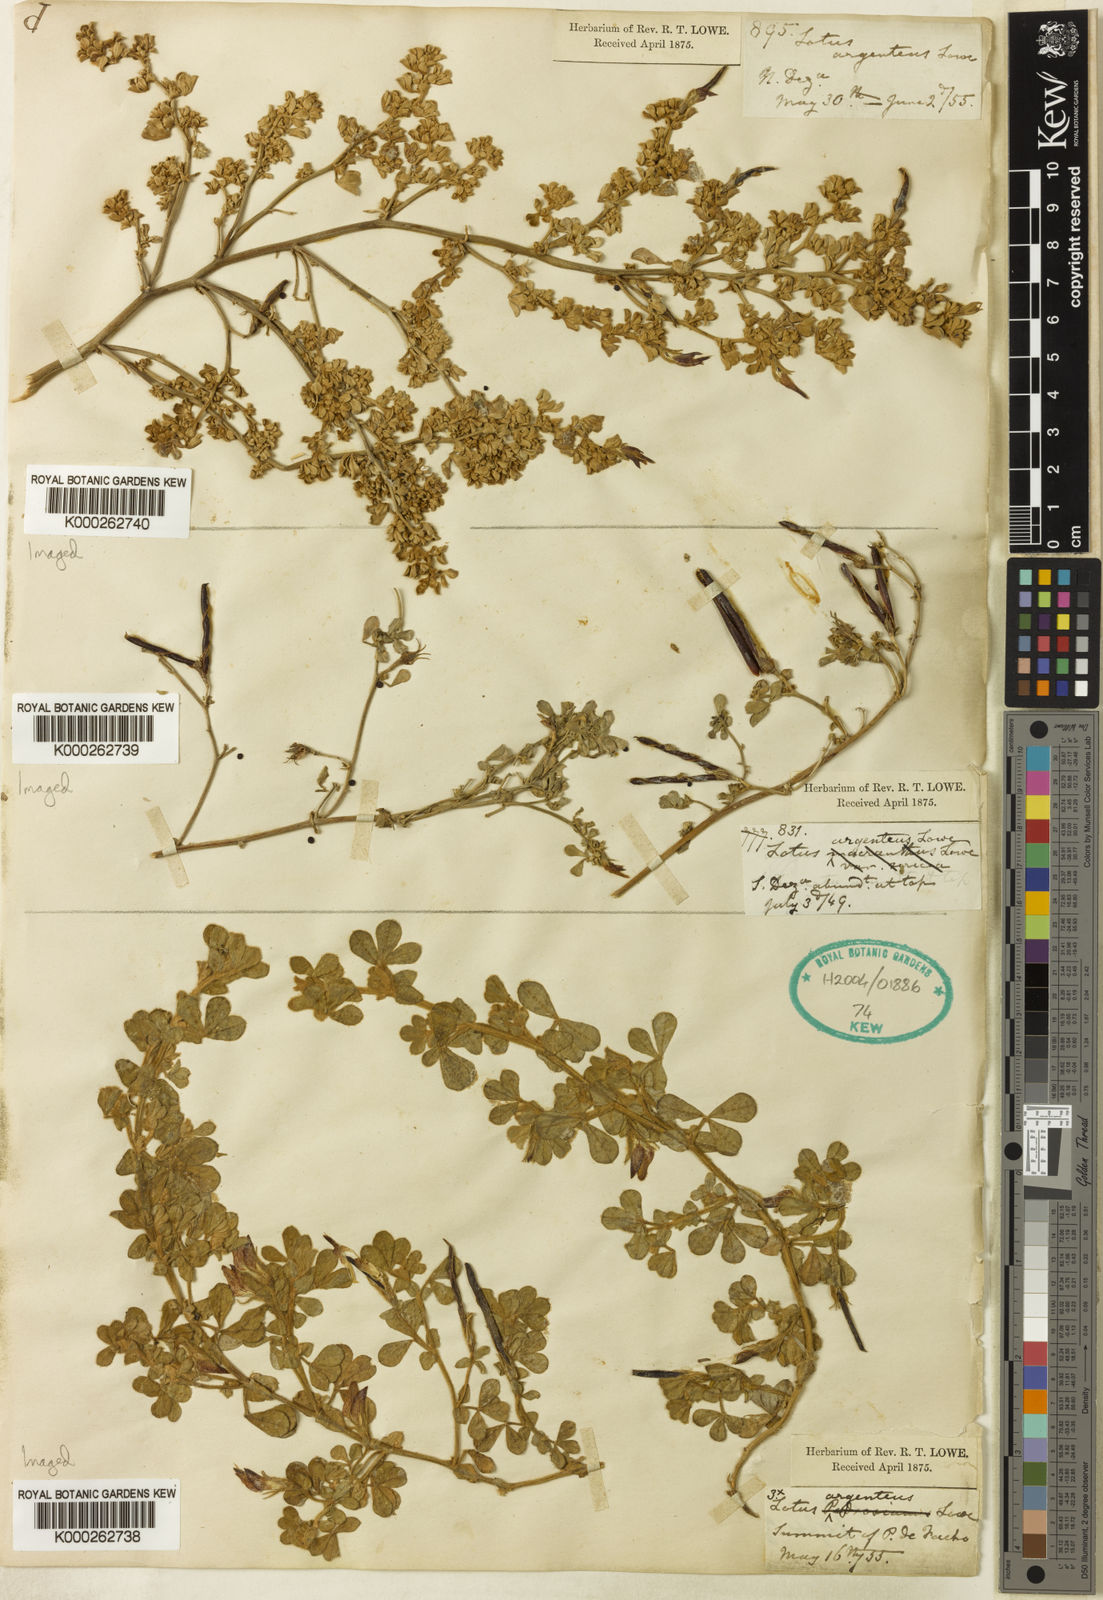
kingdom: Plantae
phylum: Tracheophyta
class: Magnoliopsida
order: Fabales
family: Fabaceae
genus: Lotus
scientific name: Lotus
